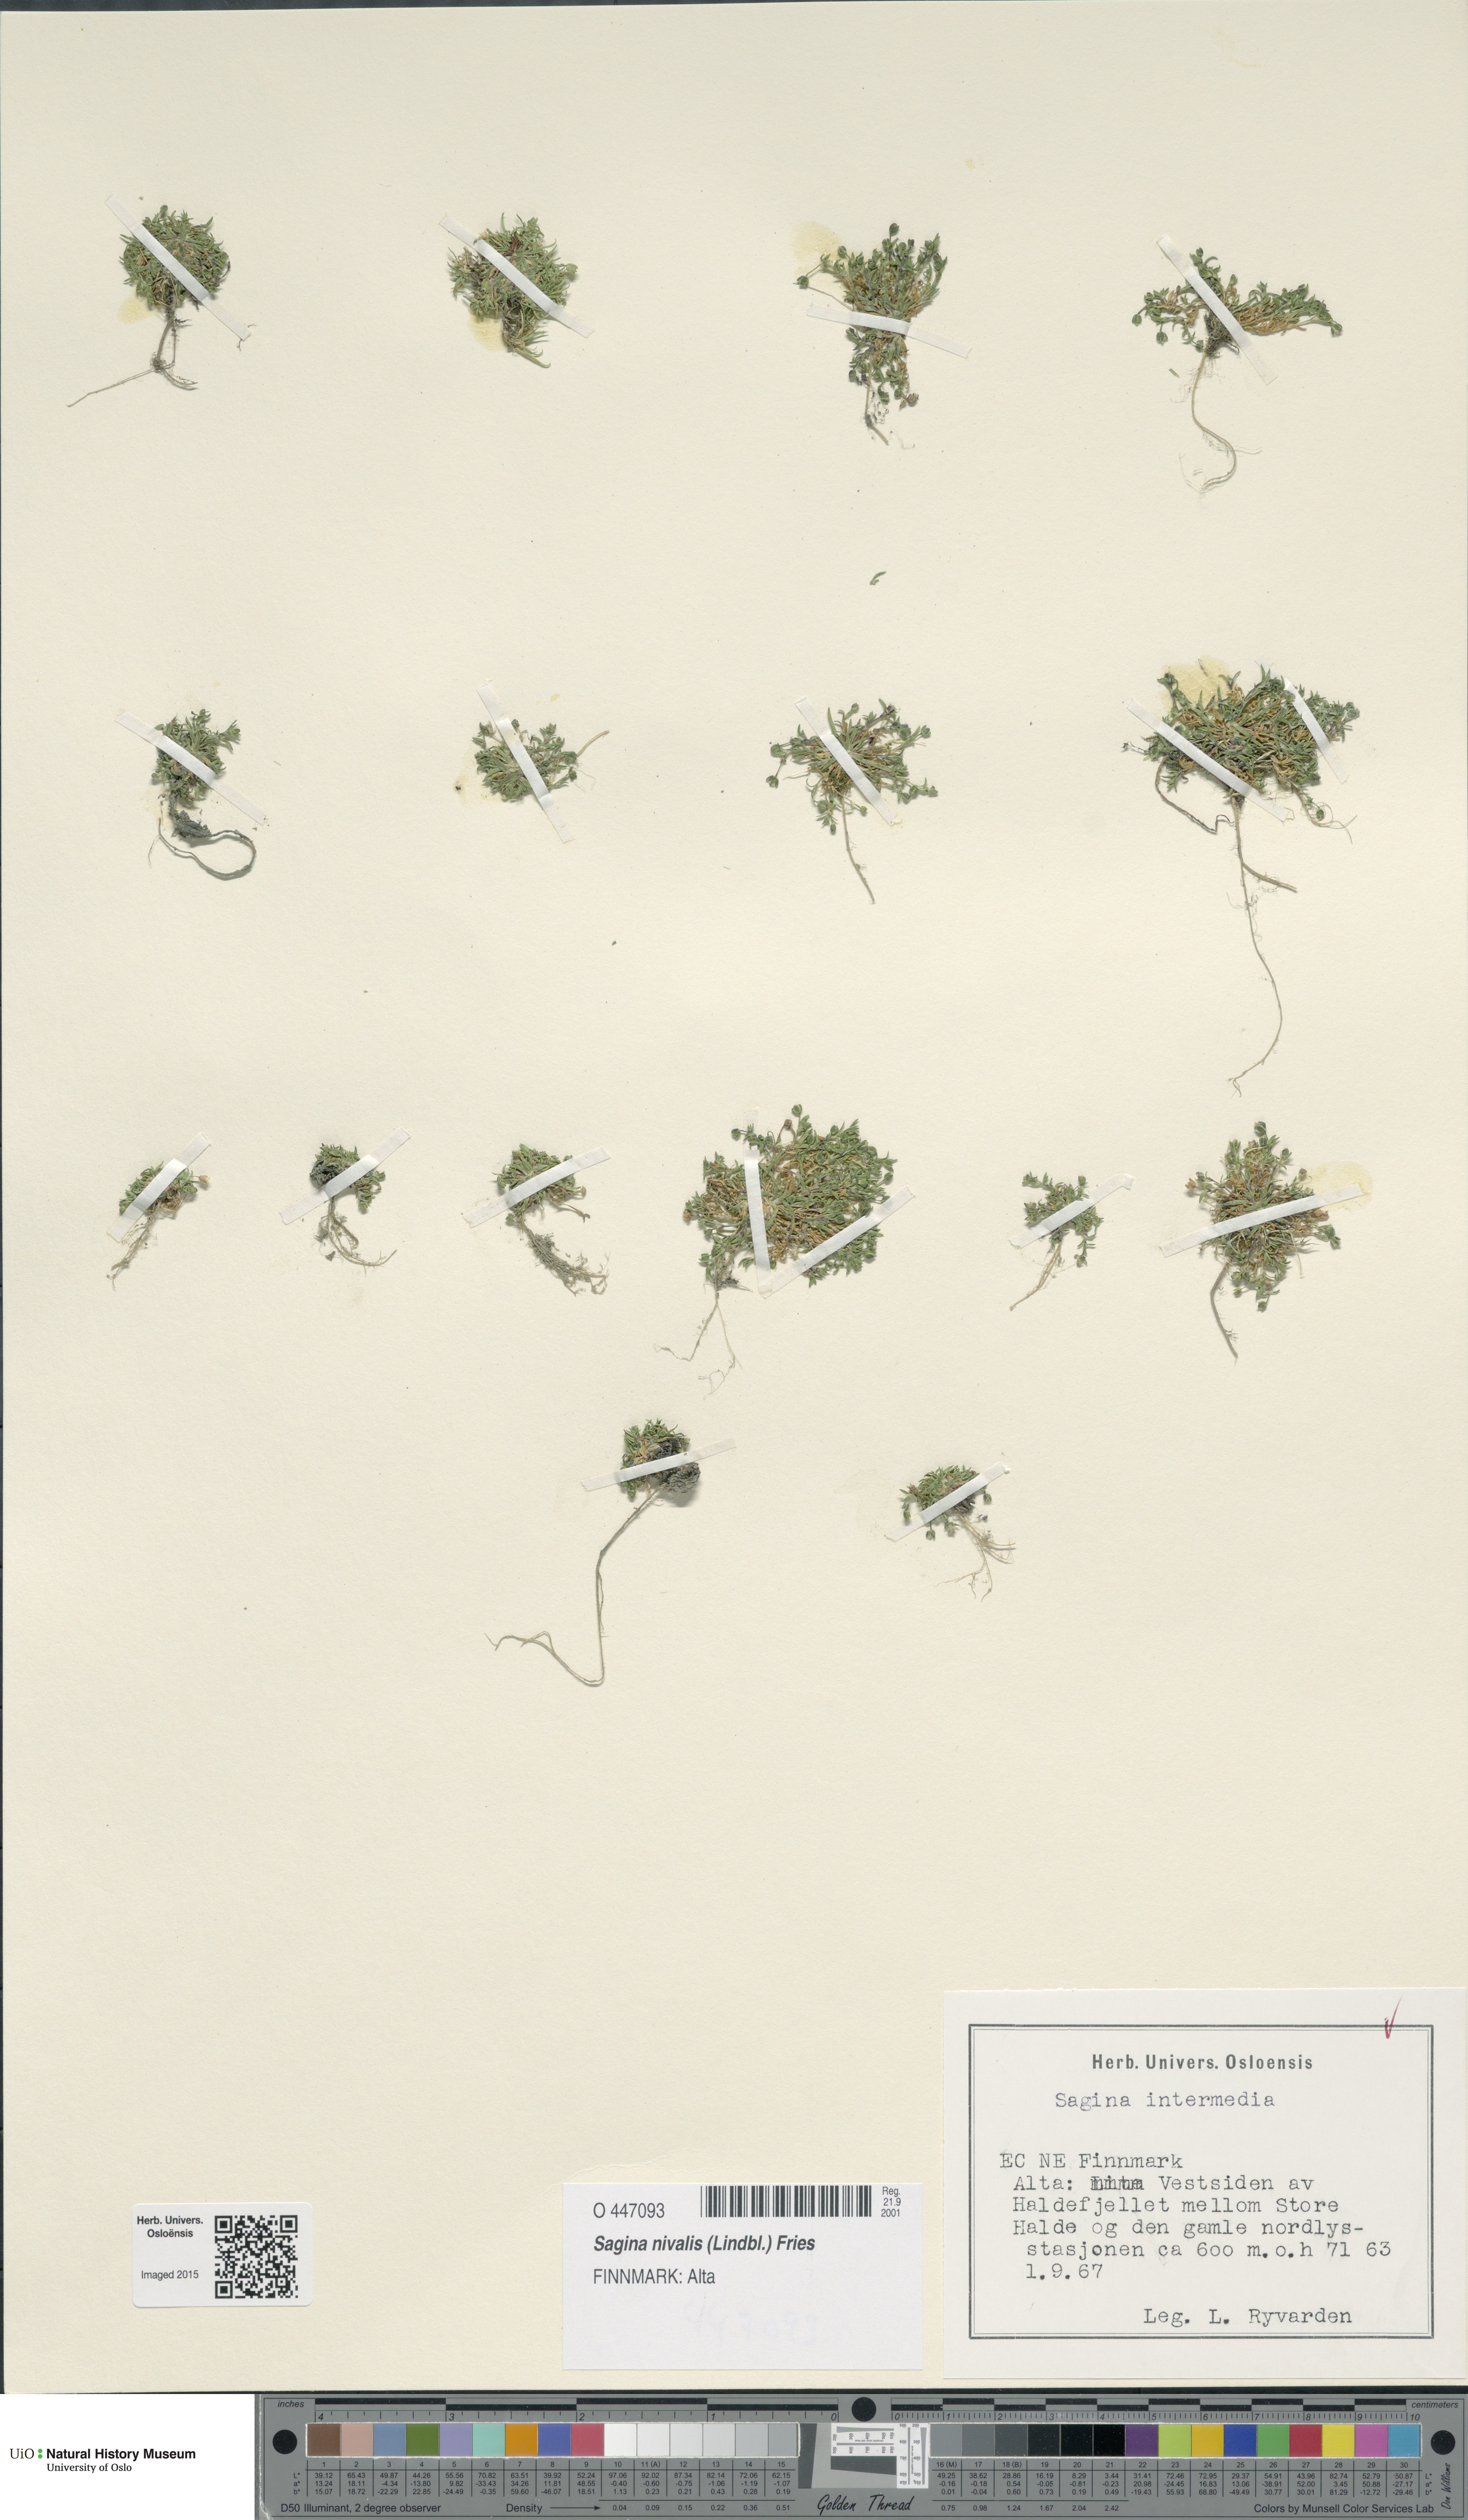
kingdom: Plantae
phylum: Tracheophyta
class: Magnoliopsida
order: Caryophyllales
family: Caryophyllaceae
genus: Sagina
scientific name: Sagina nivalis
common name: Snow pearlwort
